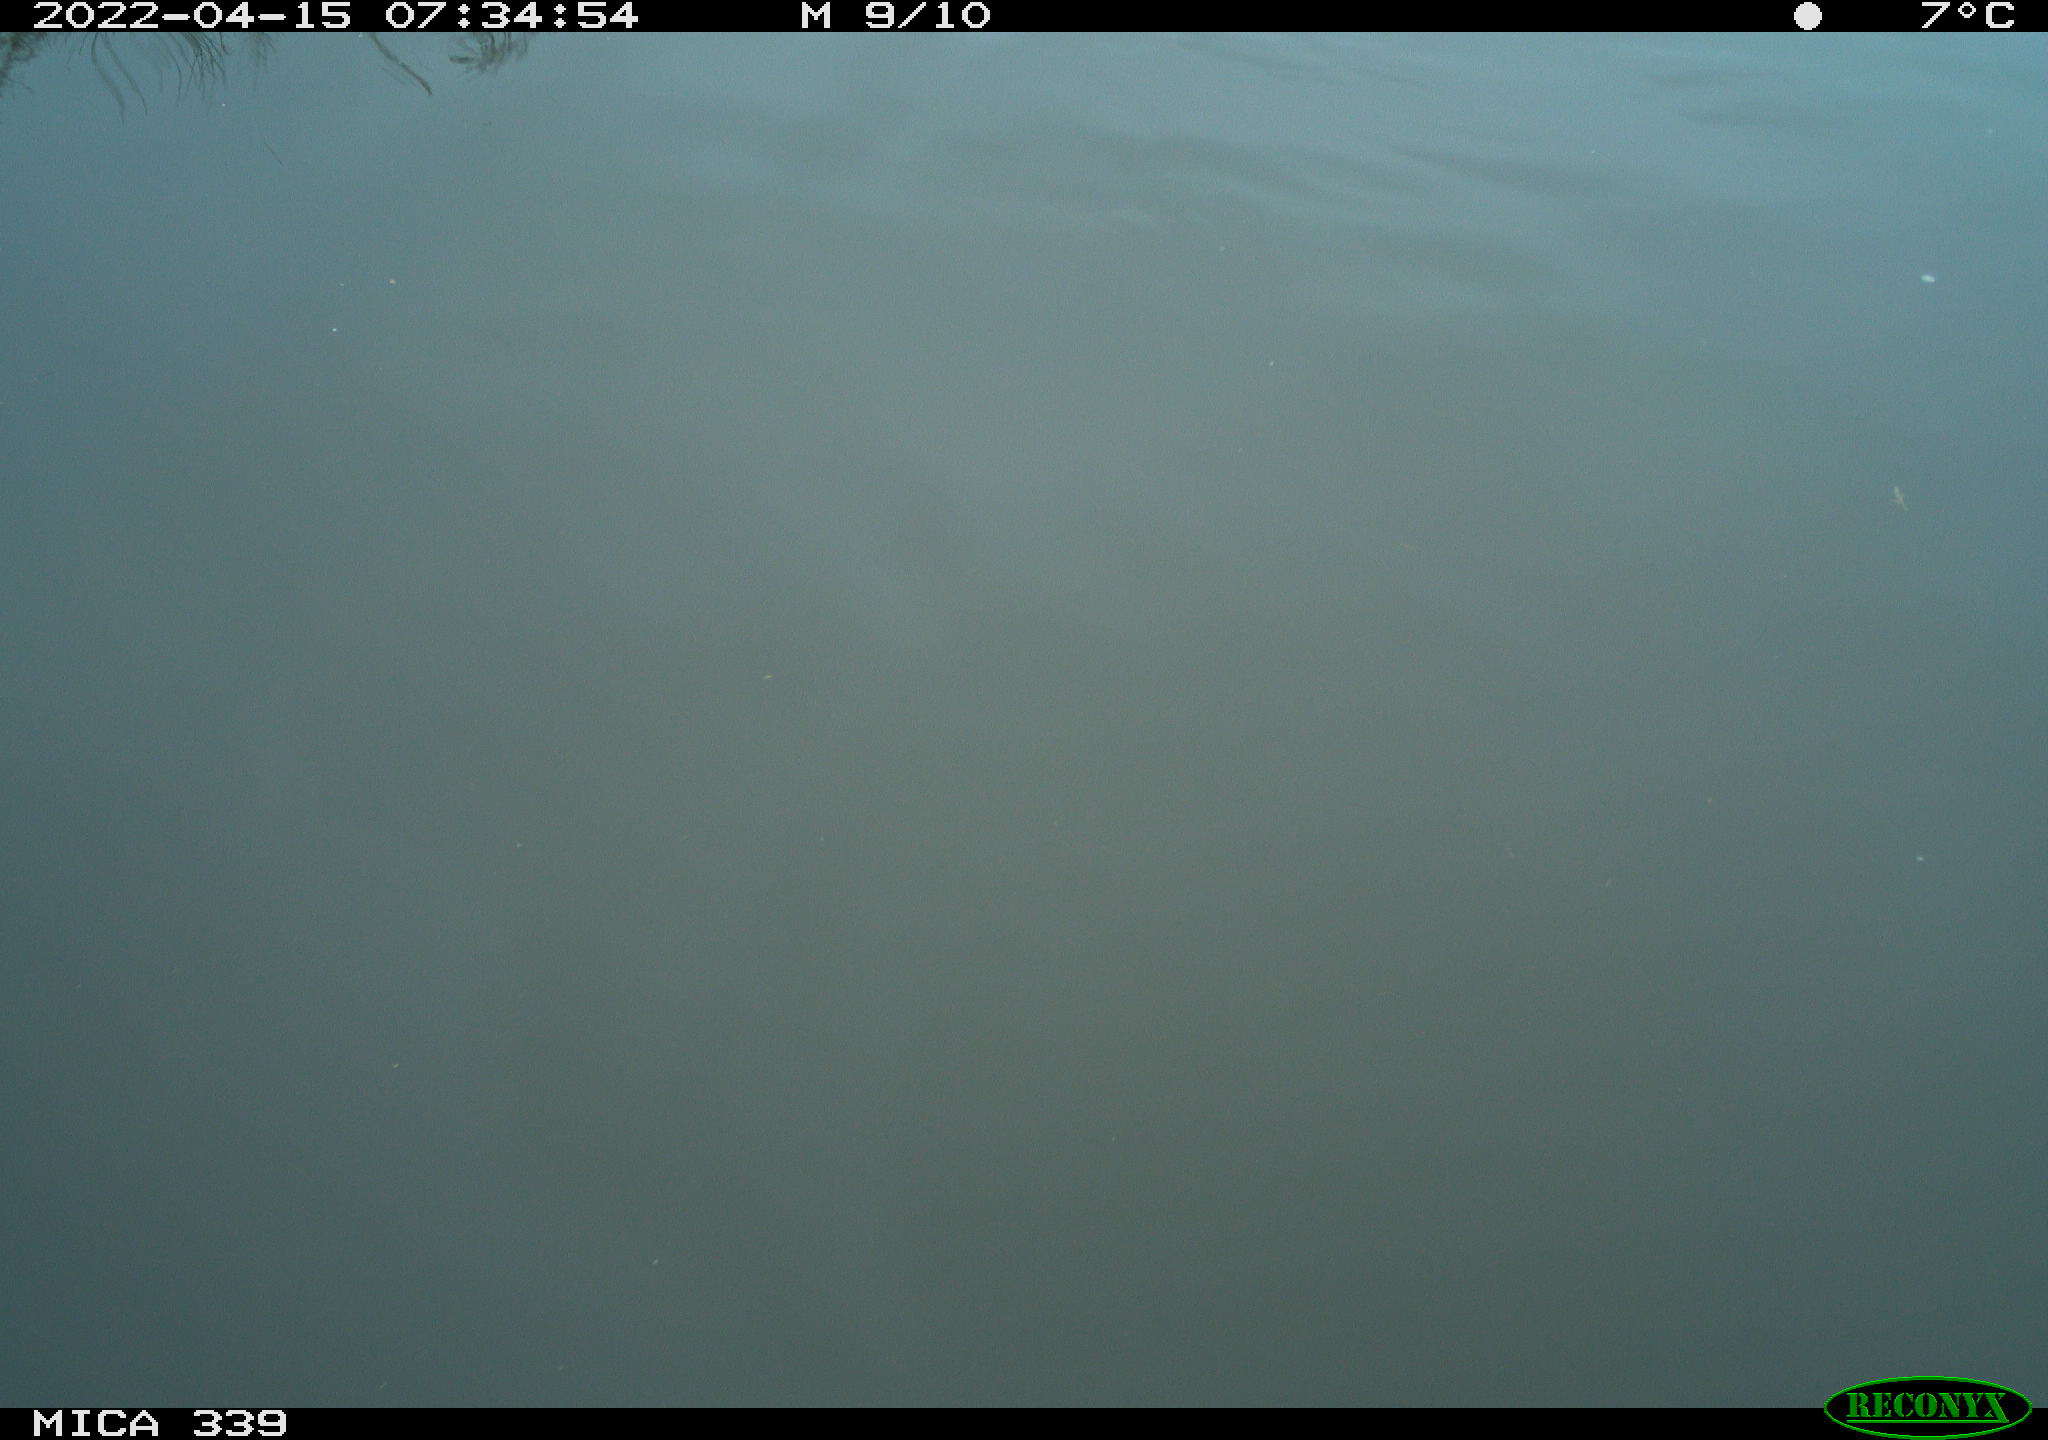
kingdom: Animalia
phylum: Chordata
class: Aves
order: Gruiformes
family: Rallidae
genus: Fulica
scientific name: Fulica atra
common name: Eurasian coot
